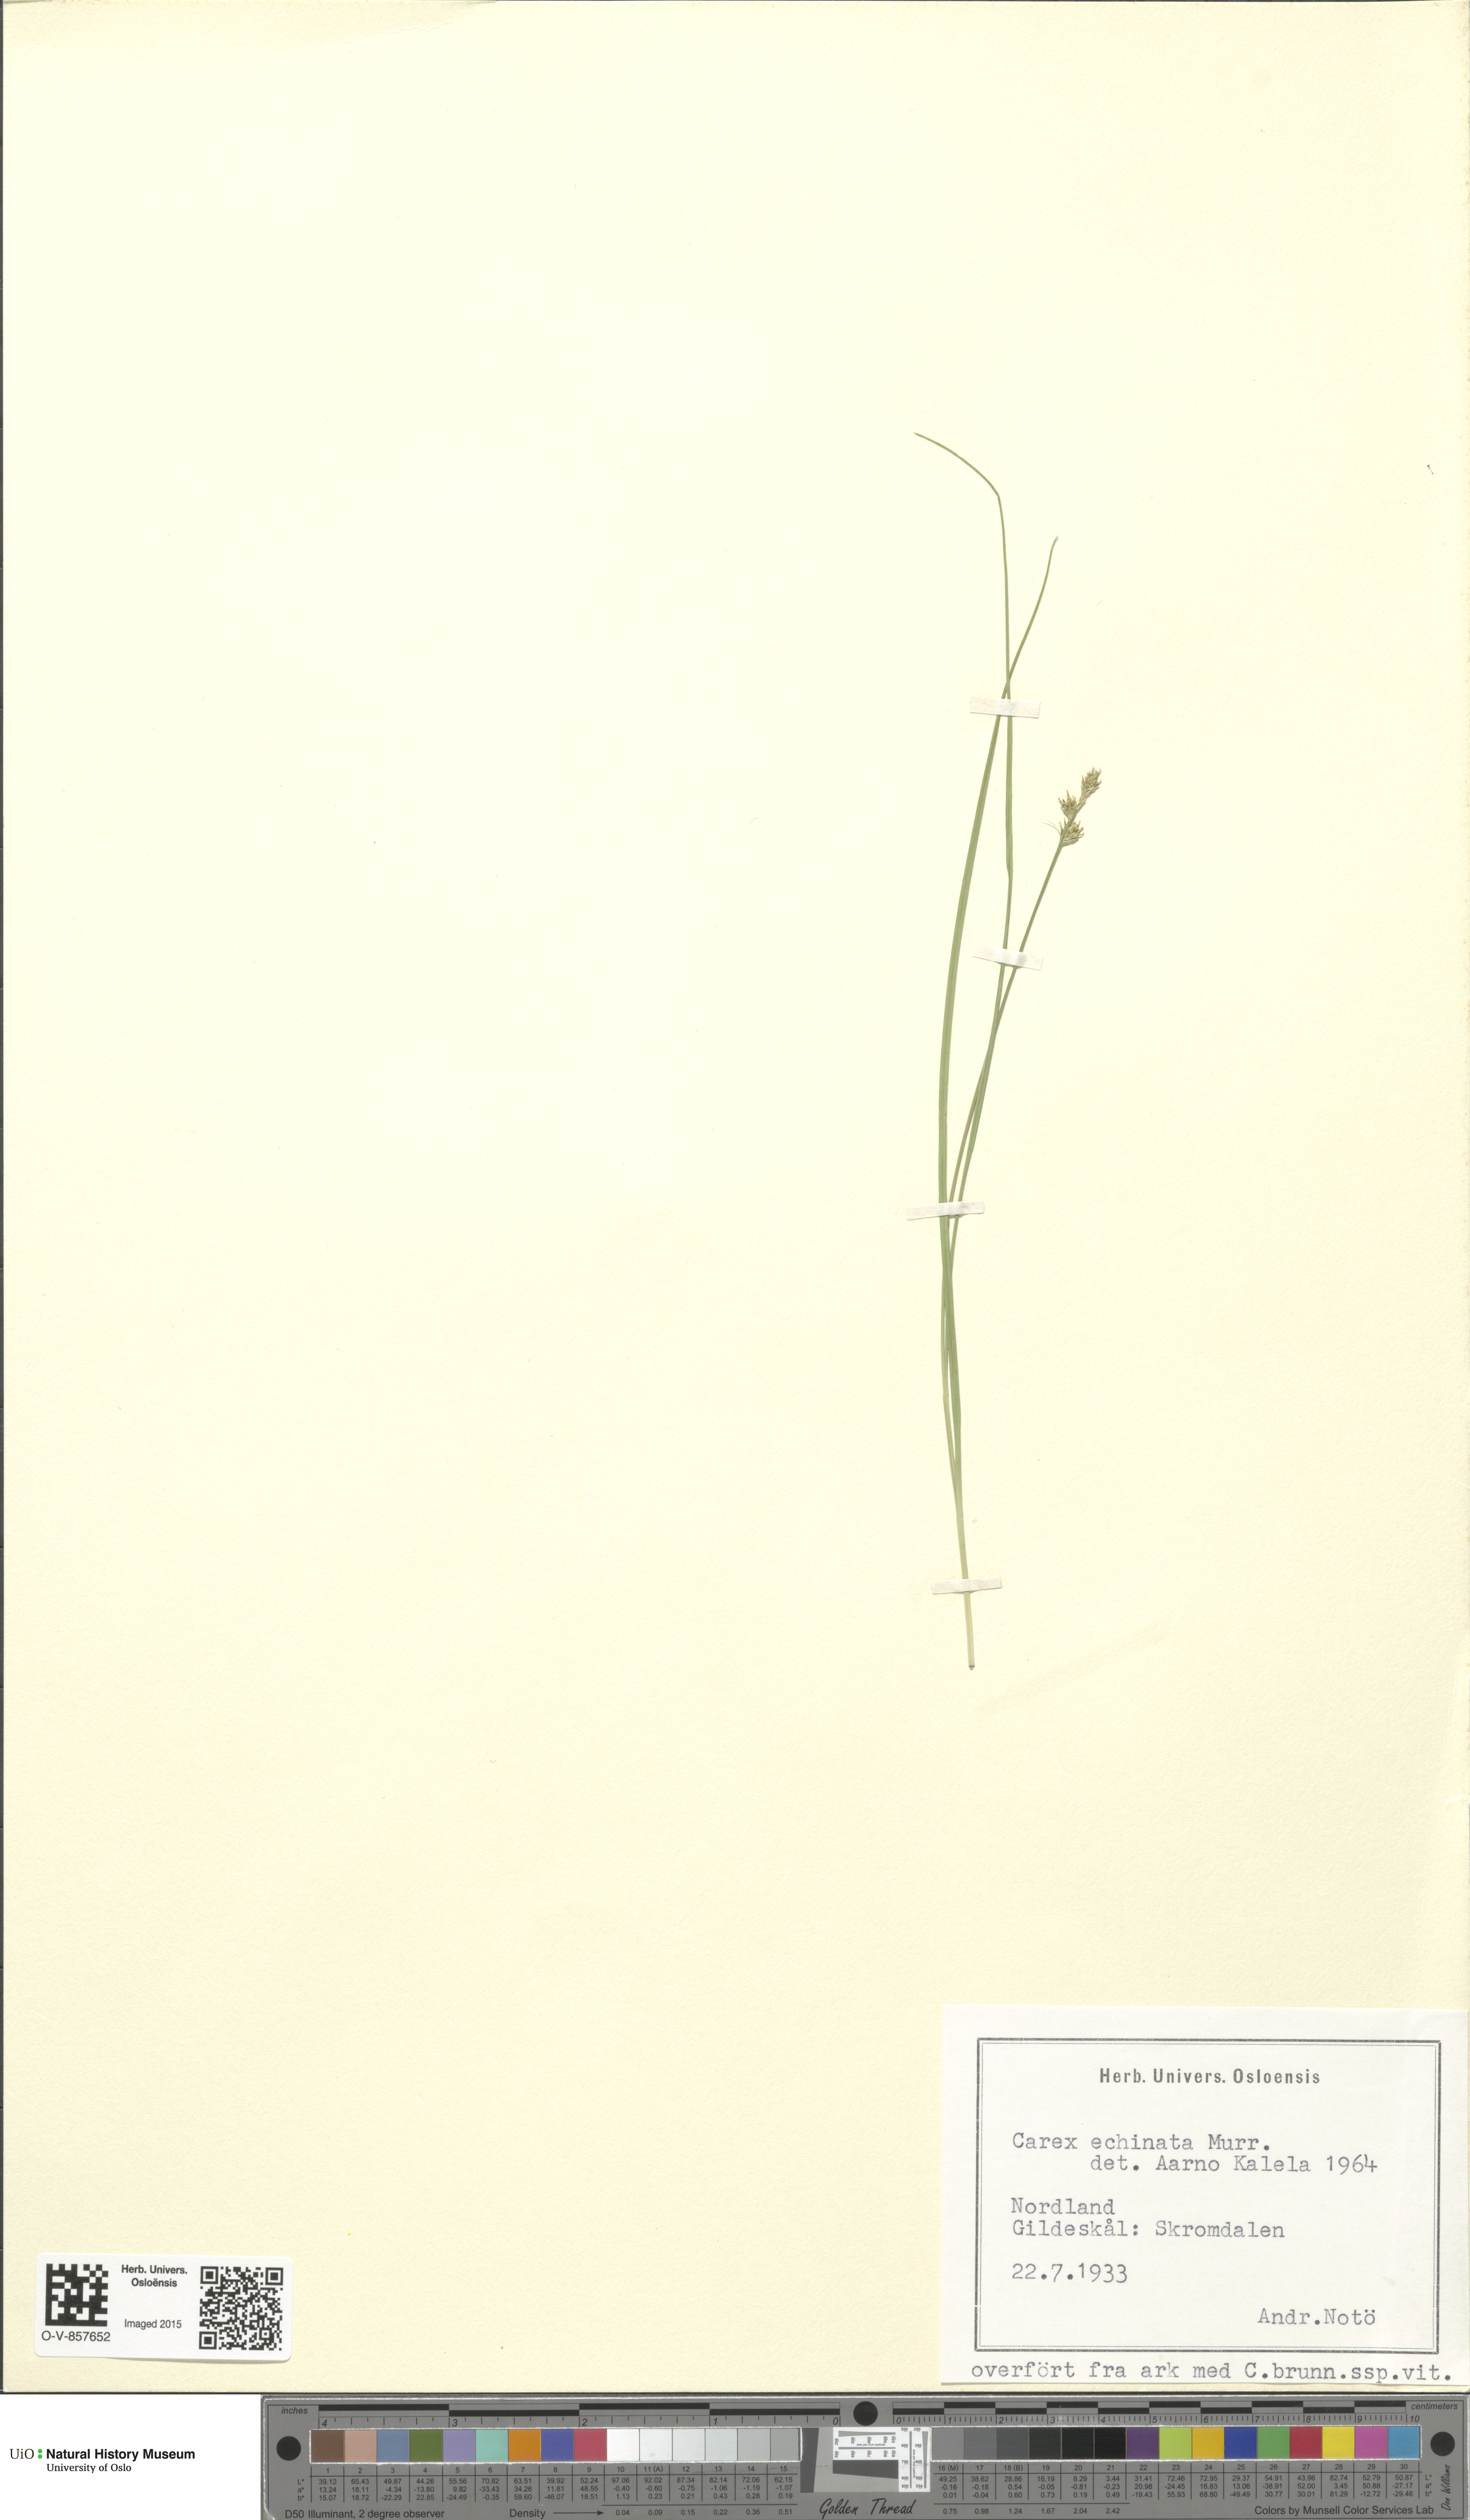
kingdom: Plantae
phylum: Tracheophyta
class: Liliopsida
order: Poales
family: Cyperaceae
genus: Carex
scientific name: Carex echinata
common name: Star sedge
